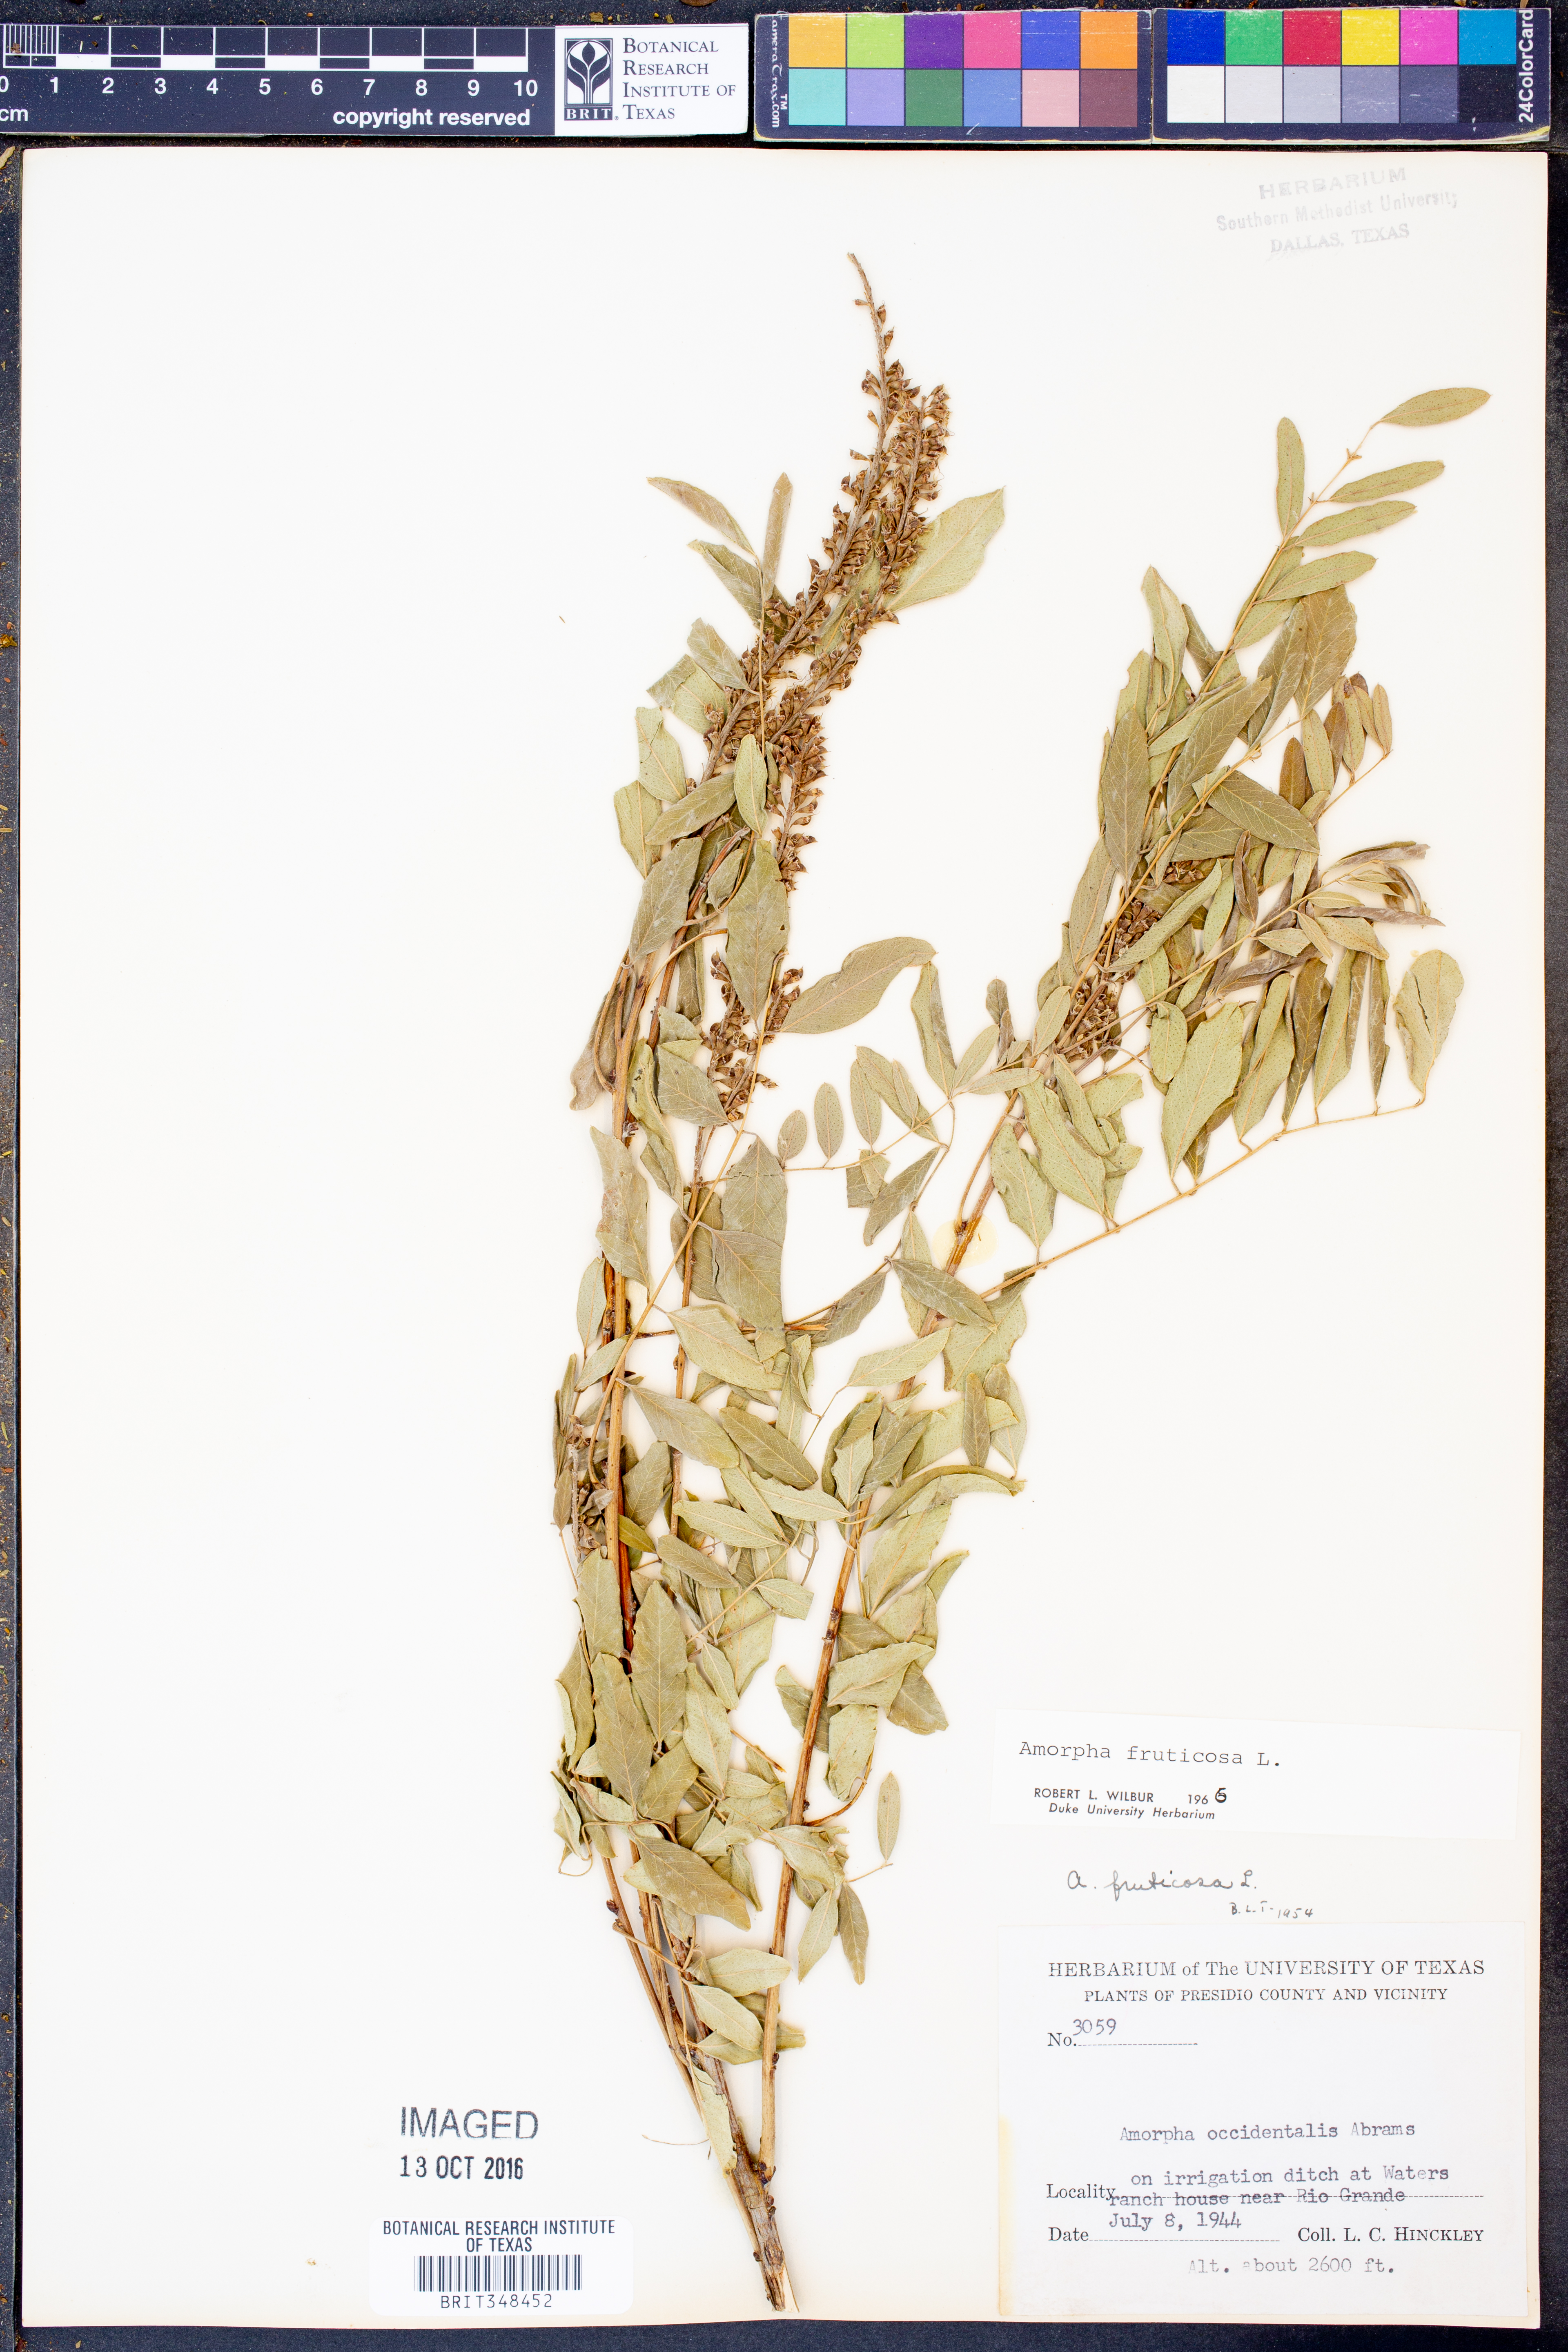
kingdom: Plantae
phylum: Tracheophyta
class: Magnoliopsida
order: Fabales
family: Fabaceae
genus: Amorpha
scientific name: Amorpha fruticosa
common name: False indigo
